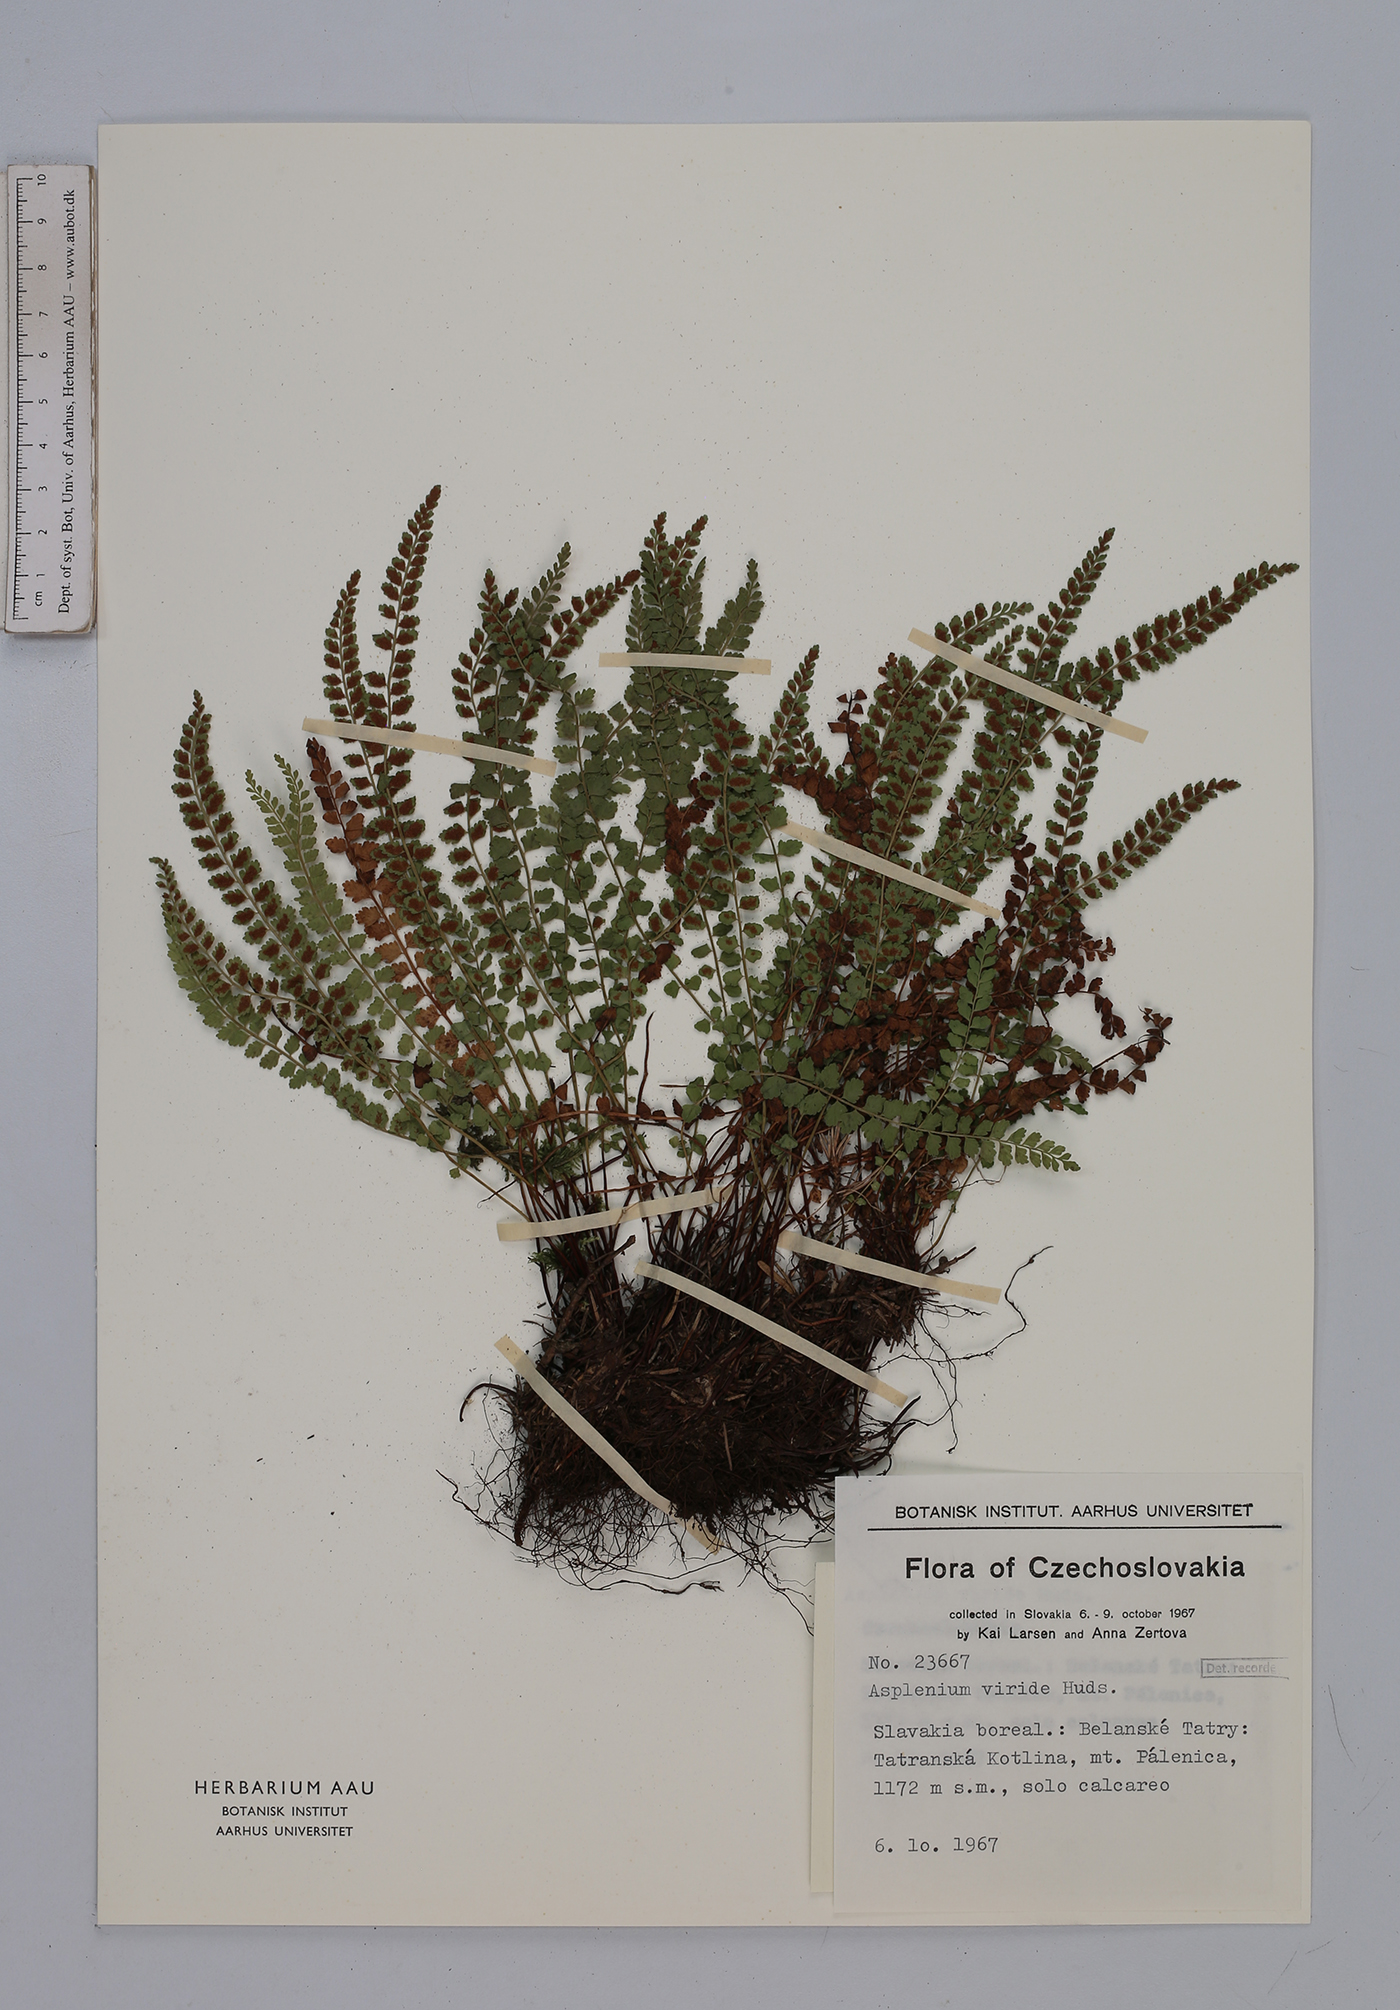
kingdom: Plantae
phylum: Tracheophyta
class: Polypodiopsida
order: Polypodiales
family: Aspleniaceae
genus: Asplenium
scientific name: Asplenium viride
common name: Green spleenwort
